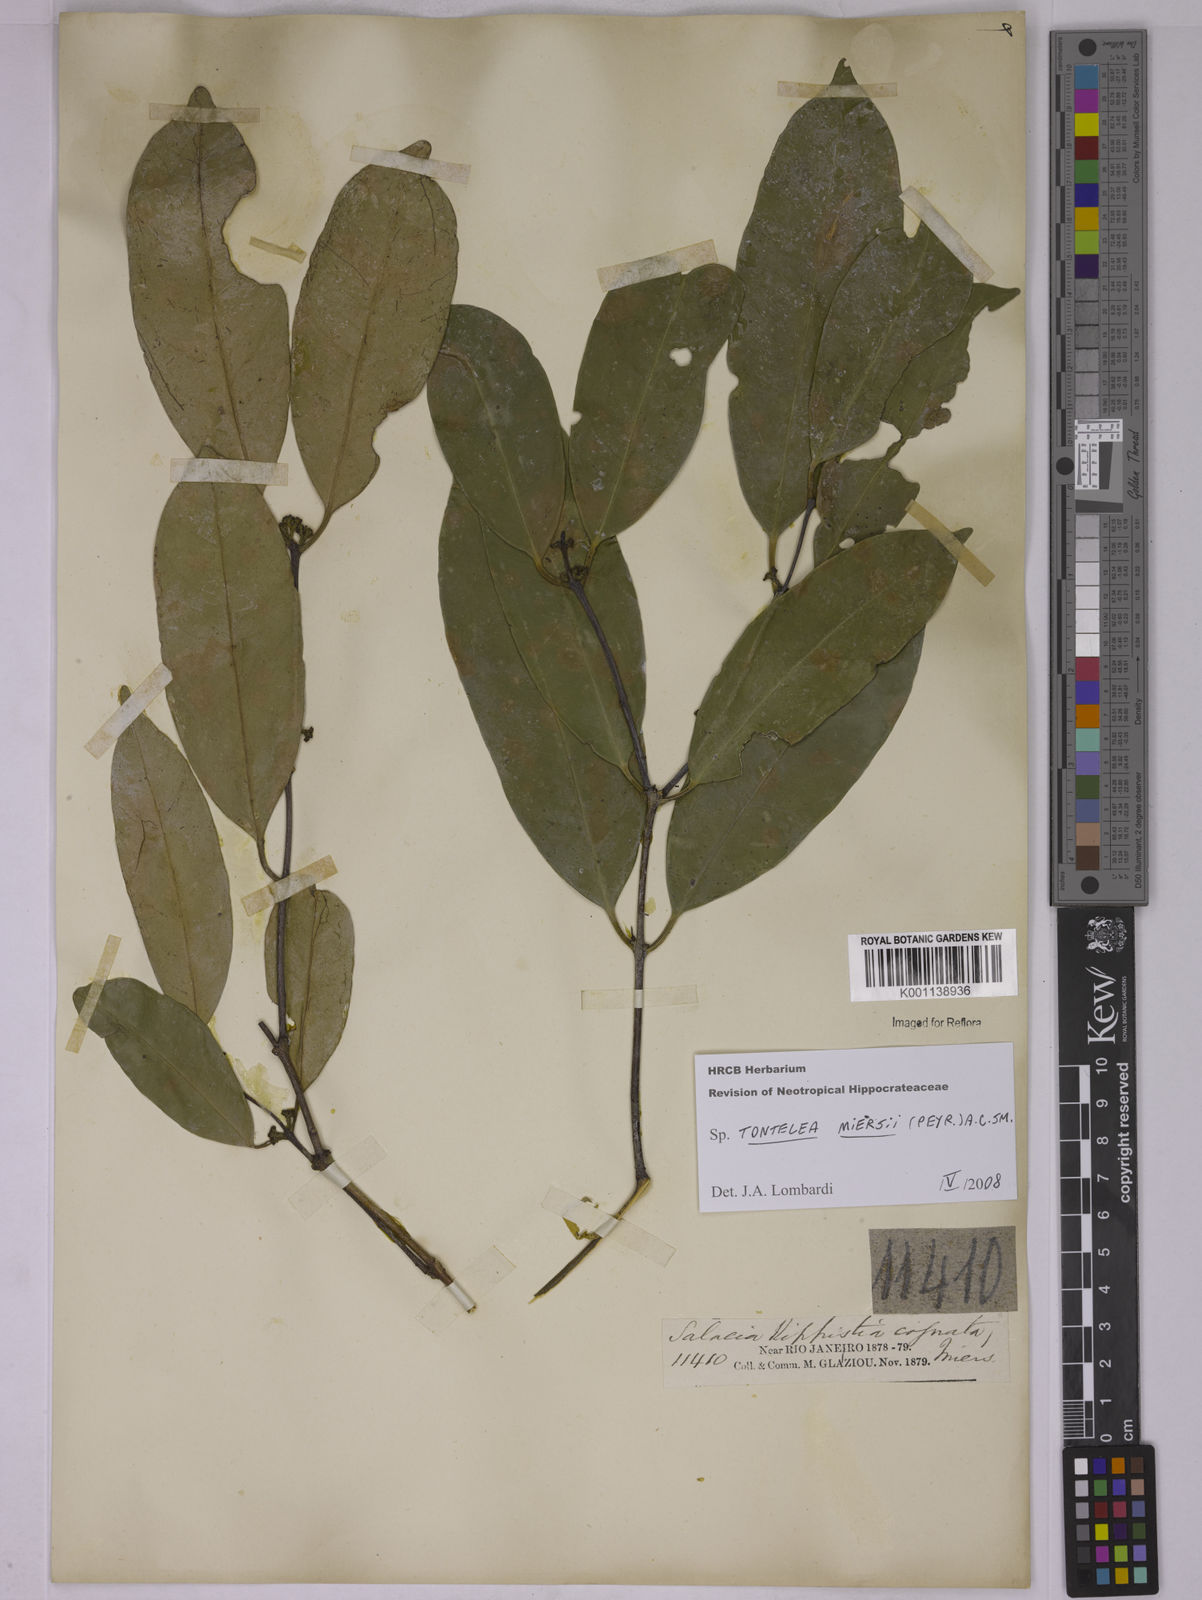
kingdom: Plantae
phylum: Tracheophyta
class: Magnoliopsida
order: Celastrales
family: Celastraceae
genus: Tontelea
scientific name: Tontelea miersii
